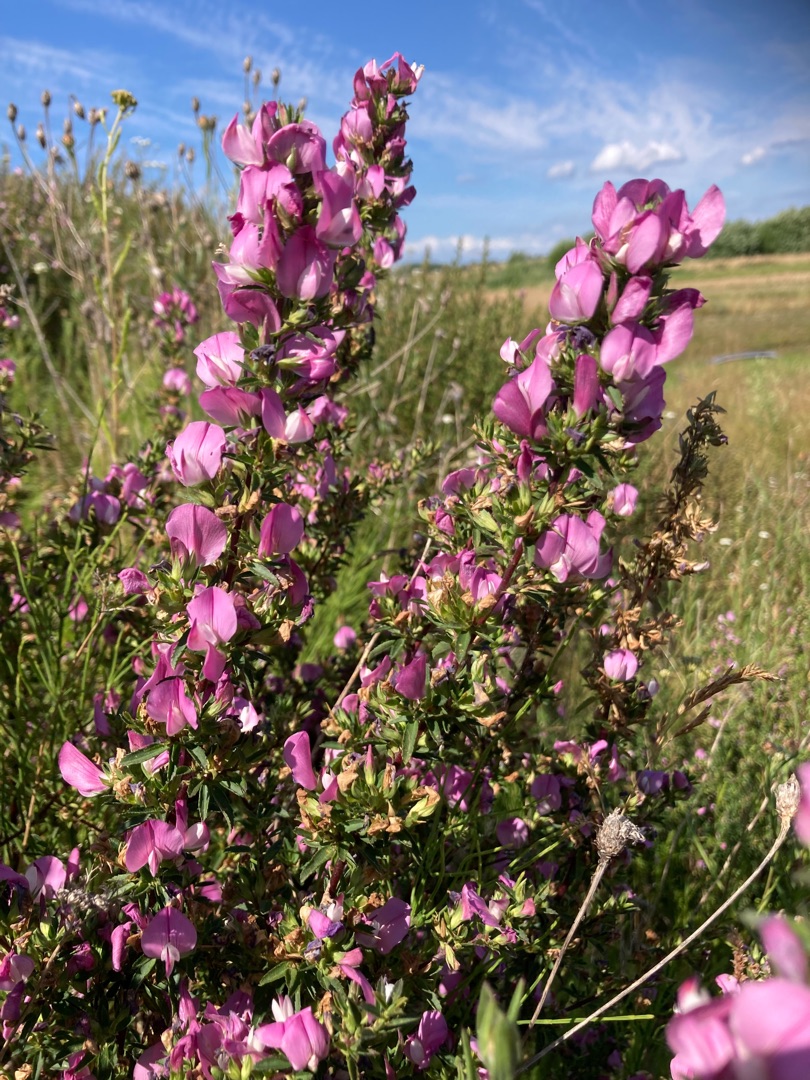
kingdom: Plantae
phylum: Tracheophyta
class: Magnoliopsida
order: Fabales
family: Fabaceae
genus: Ononis
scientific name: Ononis spinosa
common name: Strand-krageklo
